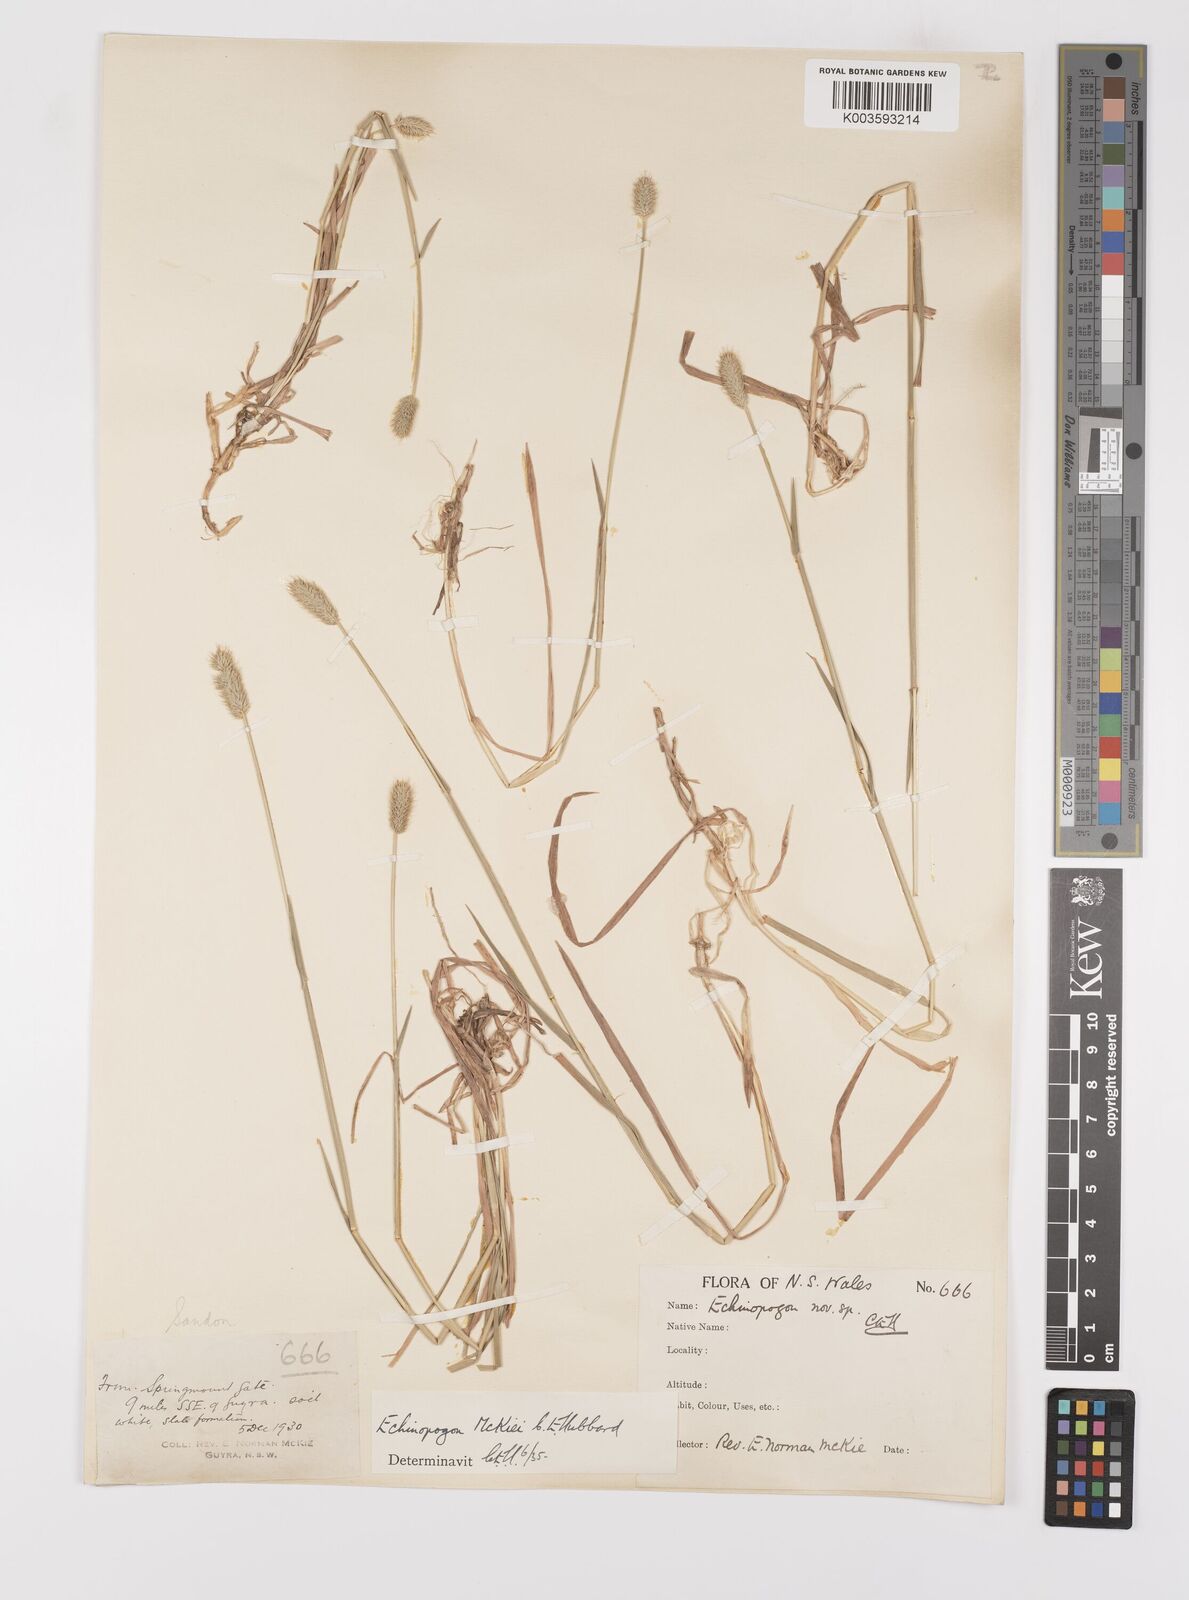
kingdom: Plantae
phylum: Tracheophyta
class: Liliopsida
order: Poales
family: Poaceae
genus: Echinopogon
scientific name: Echinopogon mckiei
